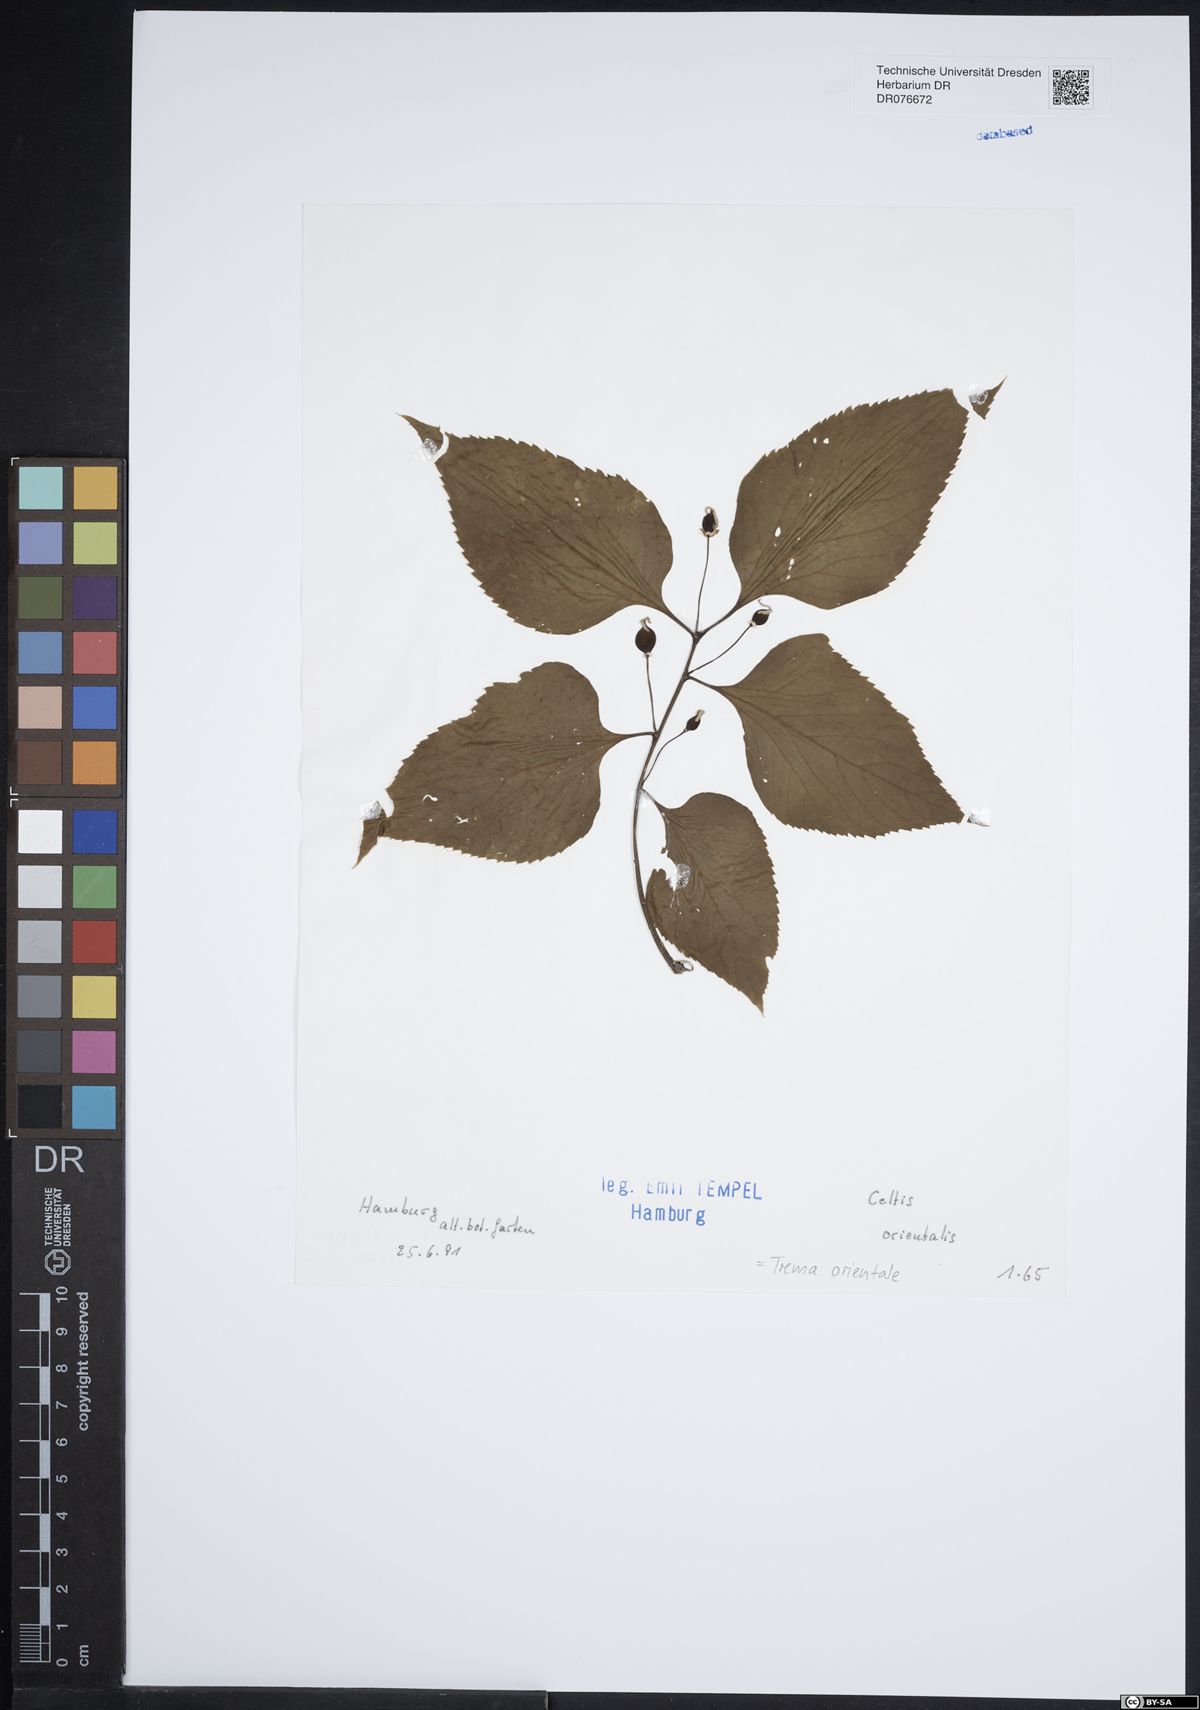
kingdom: Plantae
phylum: Tracheophyta
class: Magnoliopsida
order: Rosales
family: Cannabaceae
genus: Trema
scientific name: Trema orientale
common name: Indian charcoal tree
